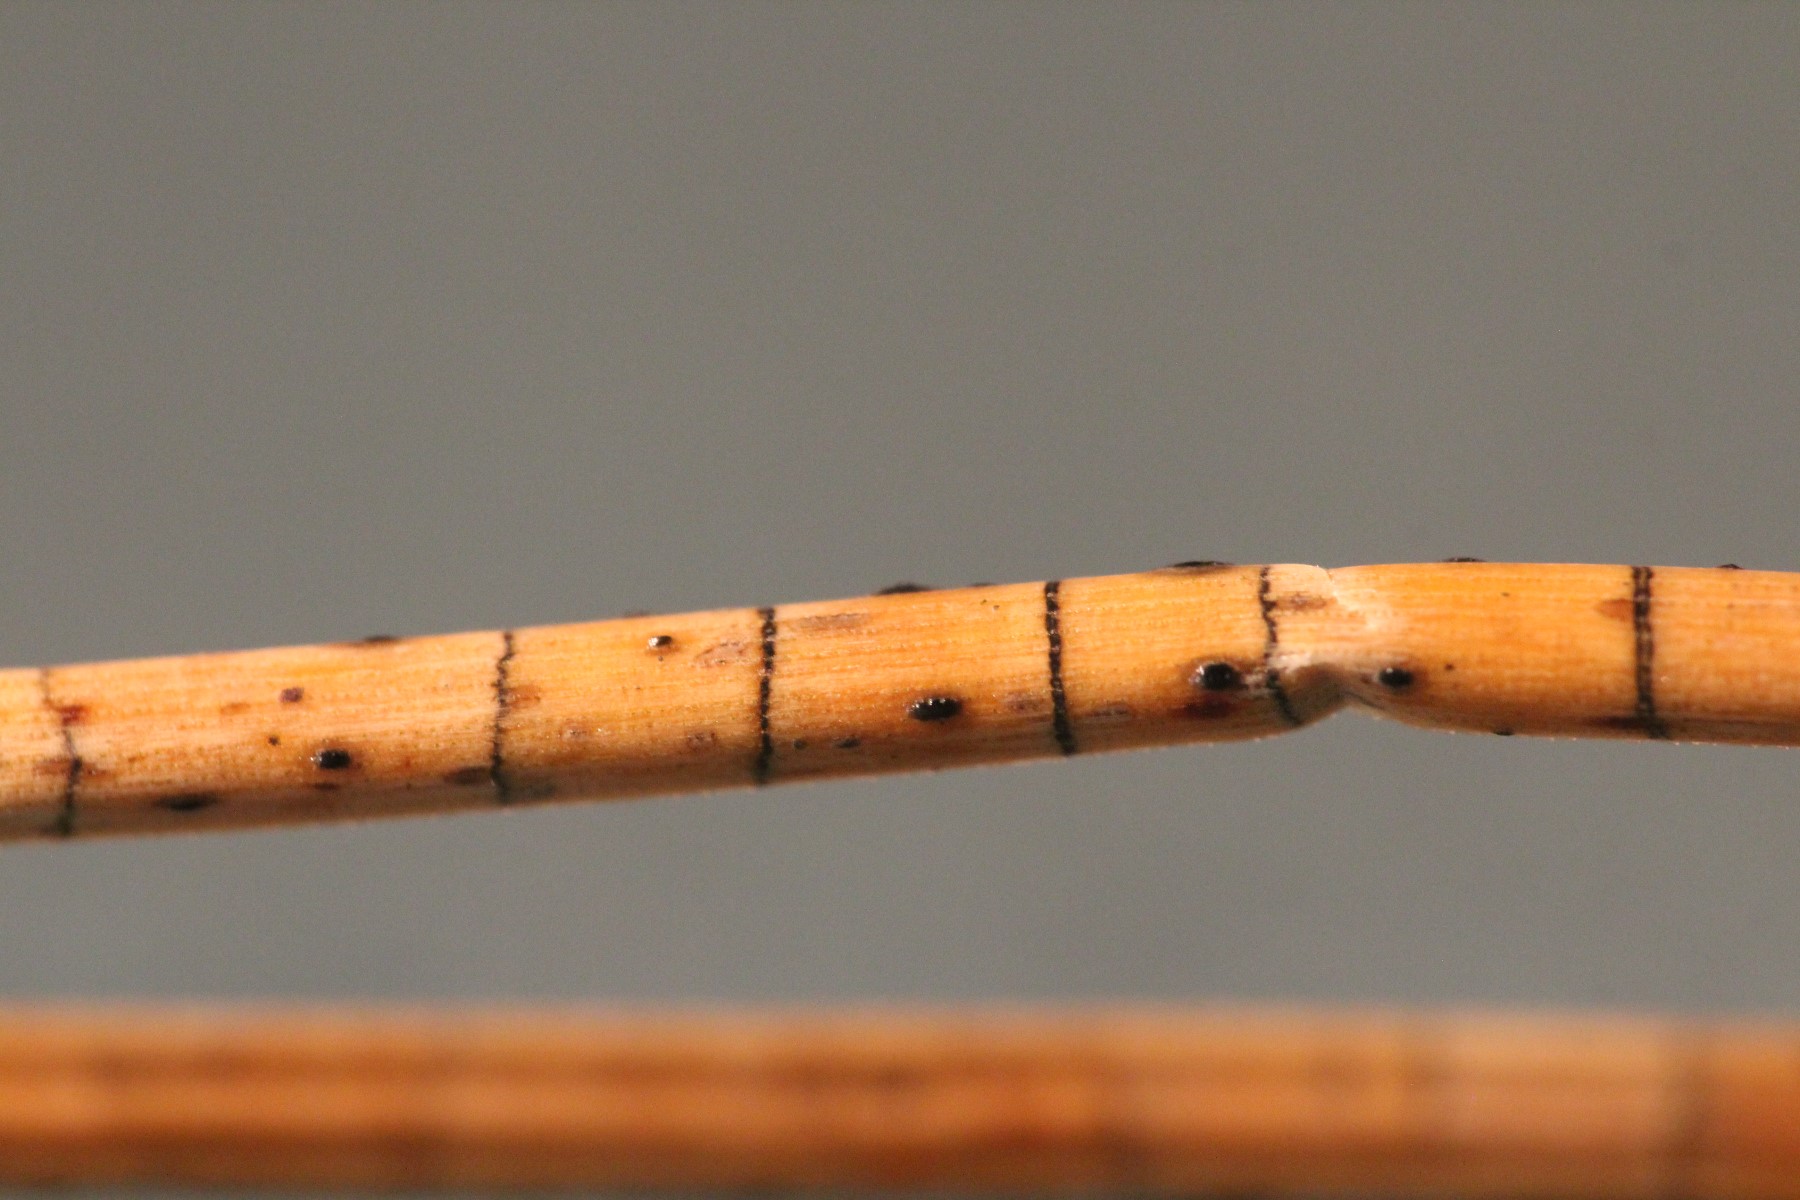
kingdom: Fungi
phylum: Ascomycota
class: Leotiomycetes
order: Rhytismatales
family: Rhytismataceae
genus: Lophodermium
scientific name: Lophodermium pinastri
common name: fyrre-fureplet
